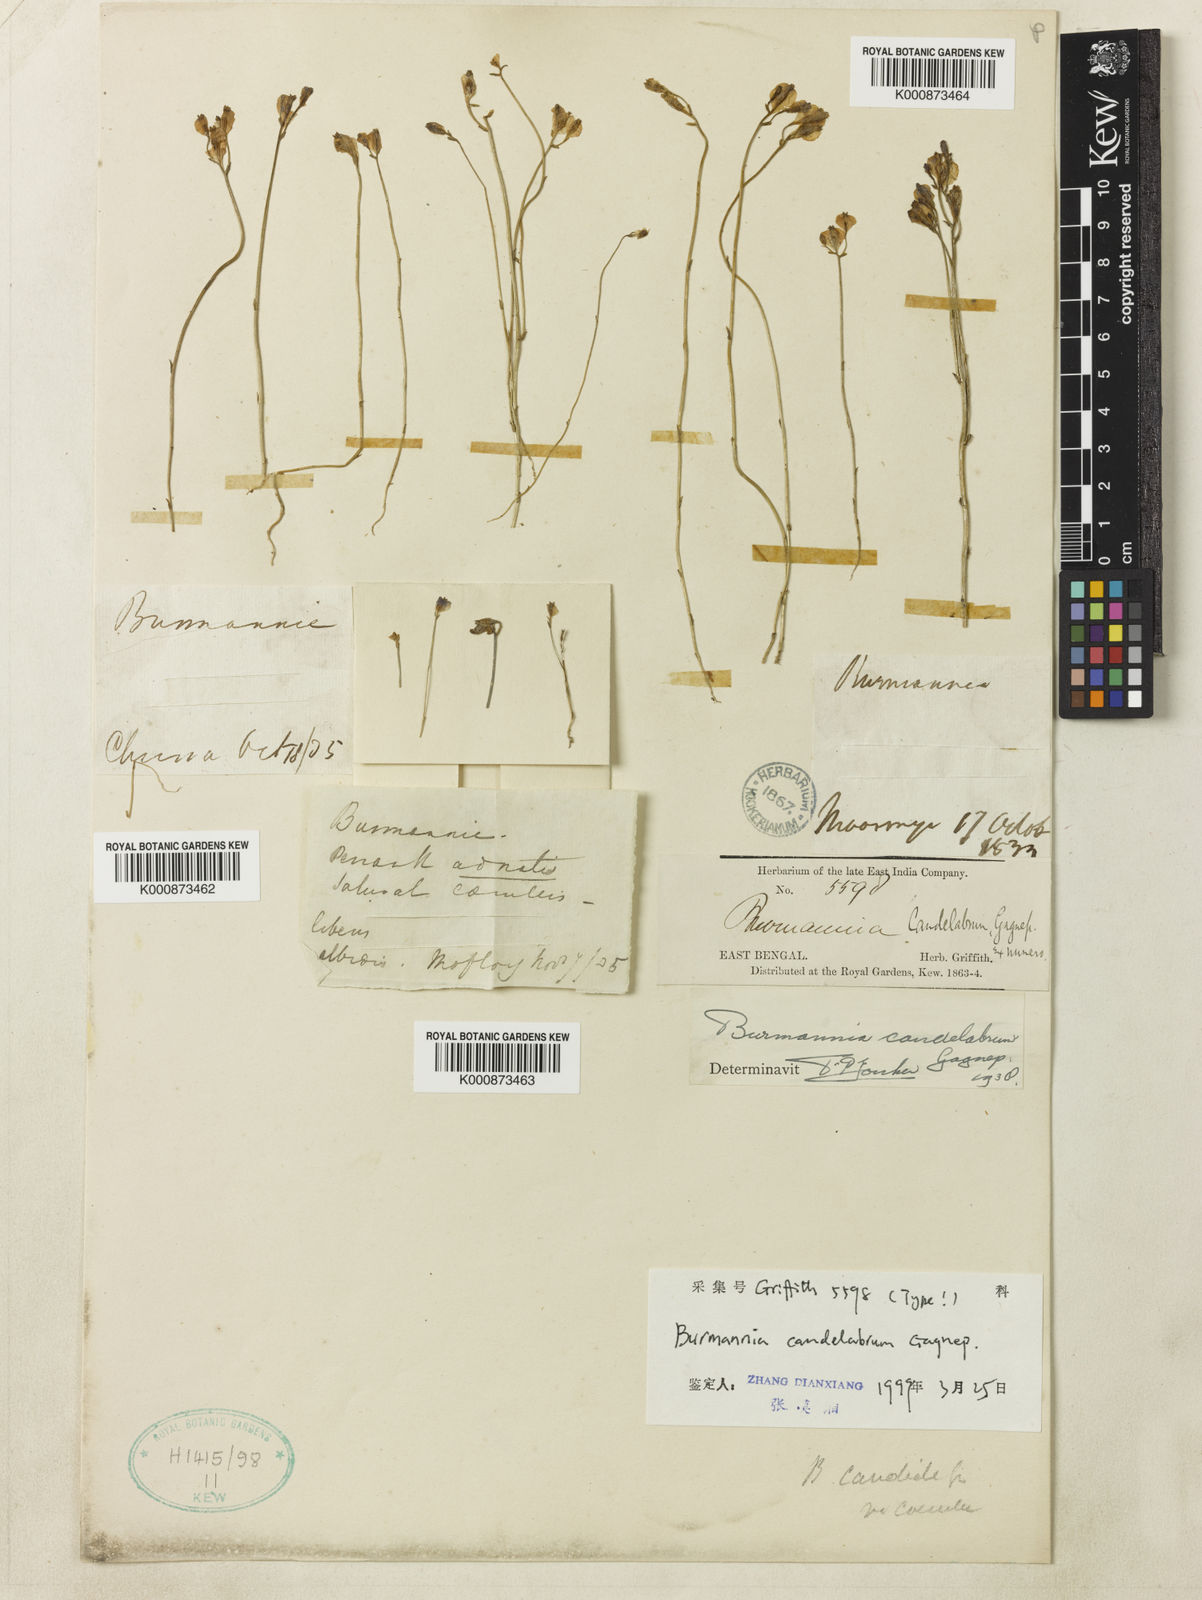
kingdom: Plantae
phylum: Tracheophyta
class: Liliopsida
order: Dioscoreales
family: Burmanniaceae
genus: Burmannia
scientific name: Burmannia candelabrum
